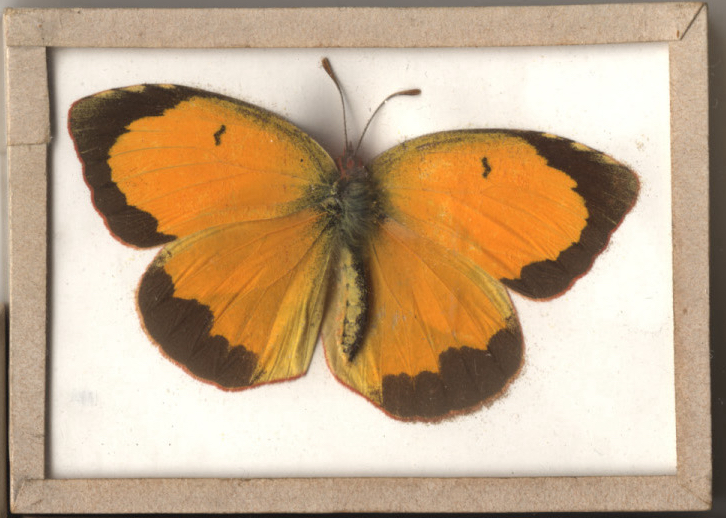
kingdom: Animalia
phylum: Arthropoda
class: Insecta
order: Lepidoptera
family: Pieridae
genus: Abaeis
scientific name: Abaeis nicippe
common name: Sleepy Orange
